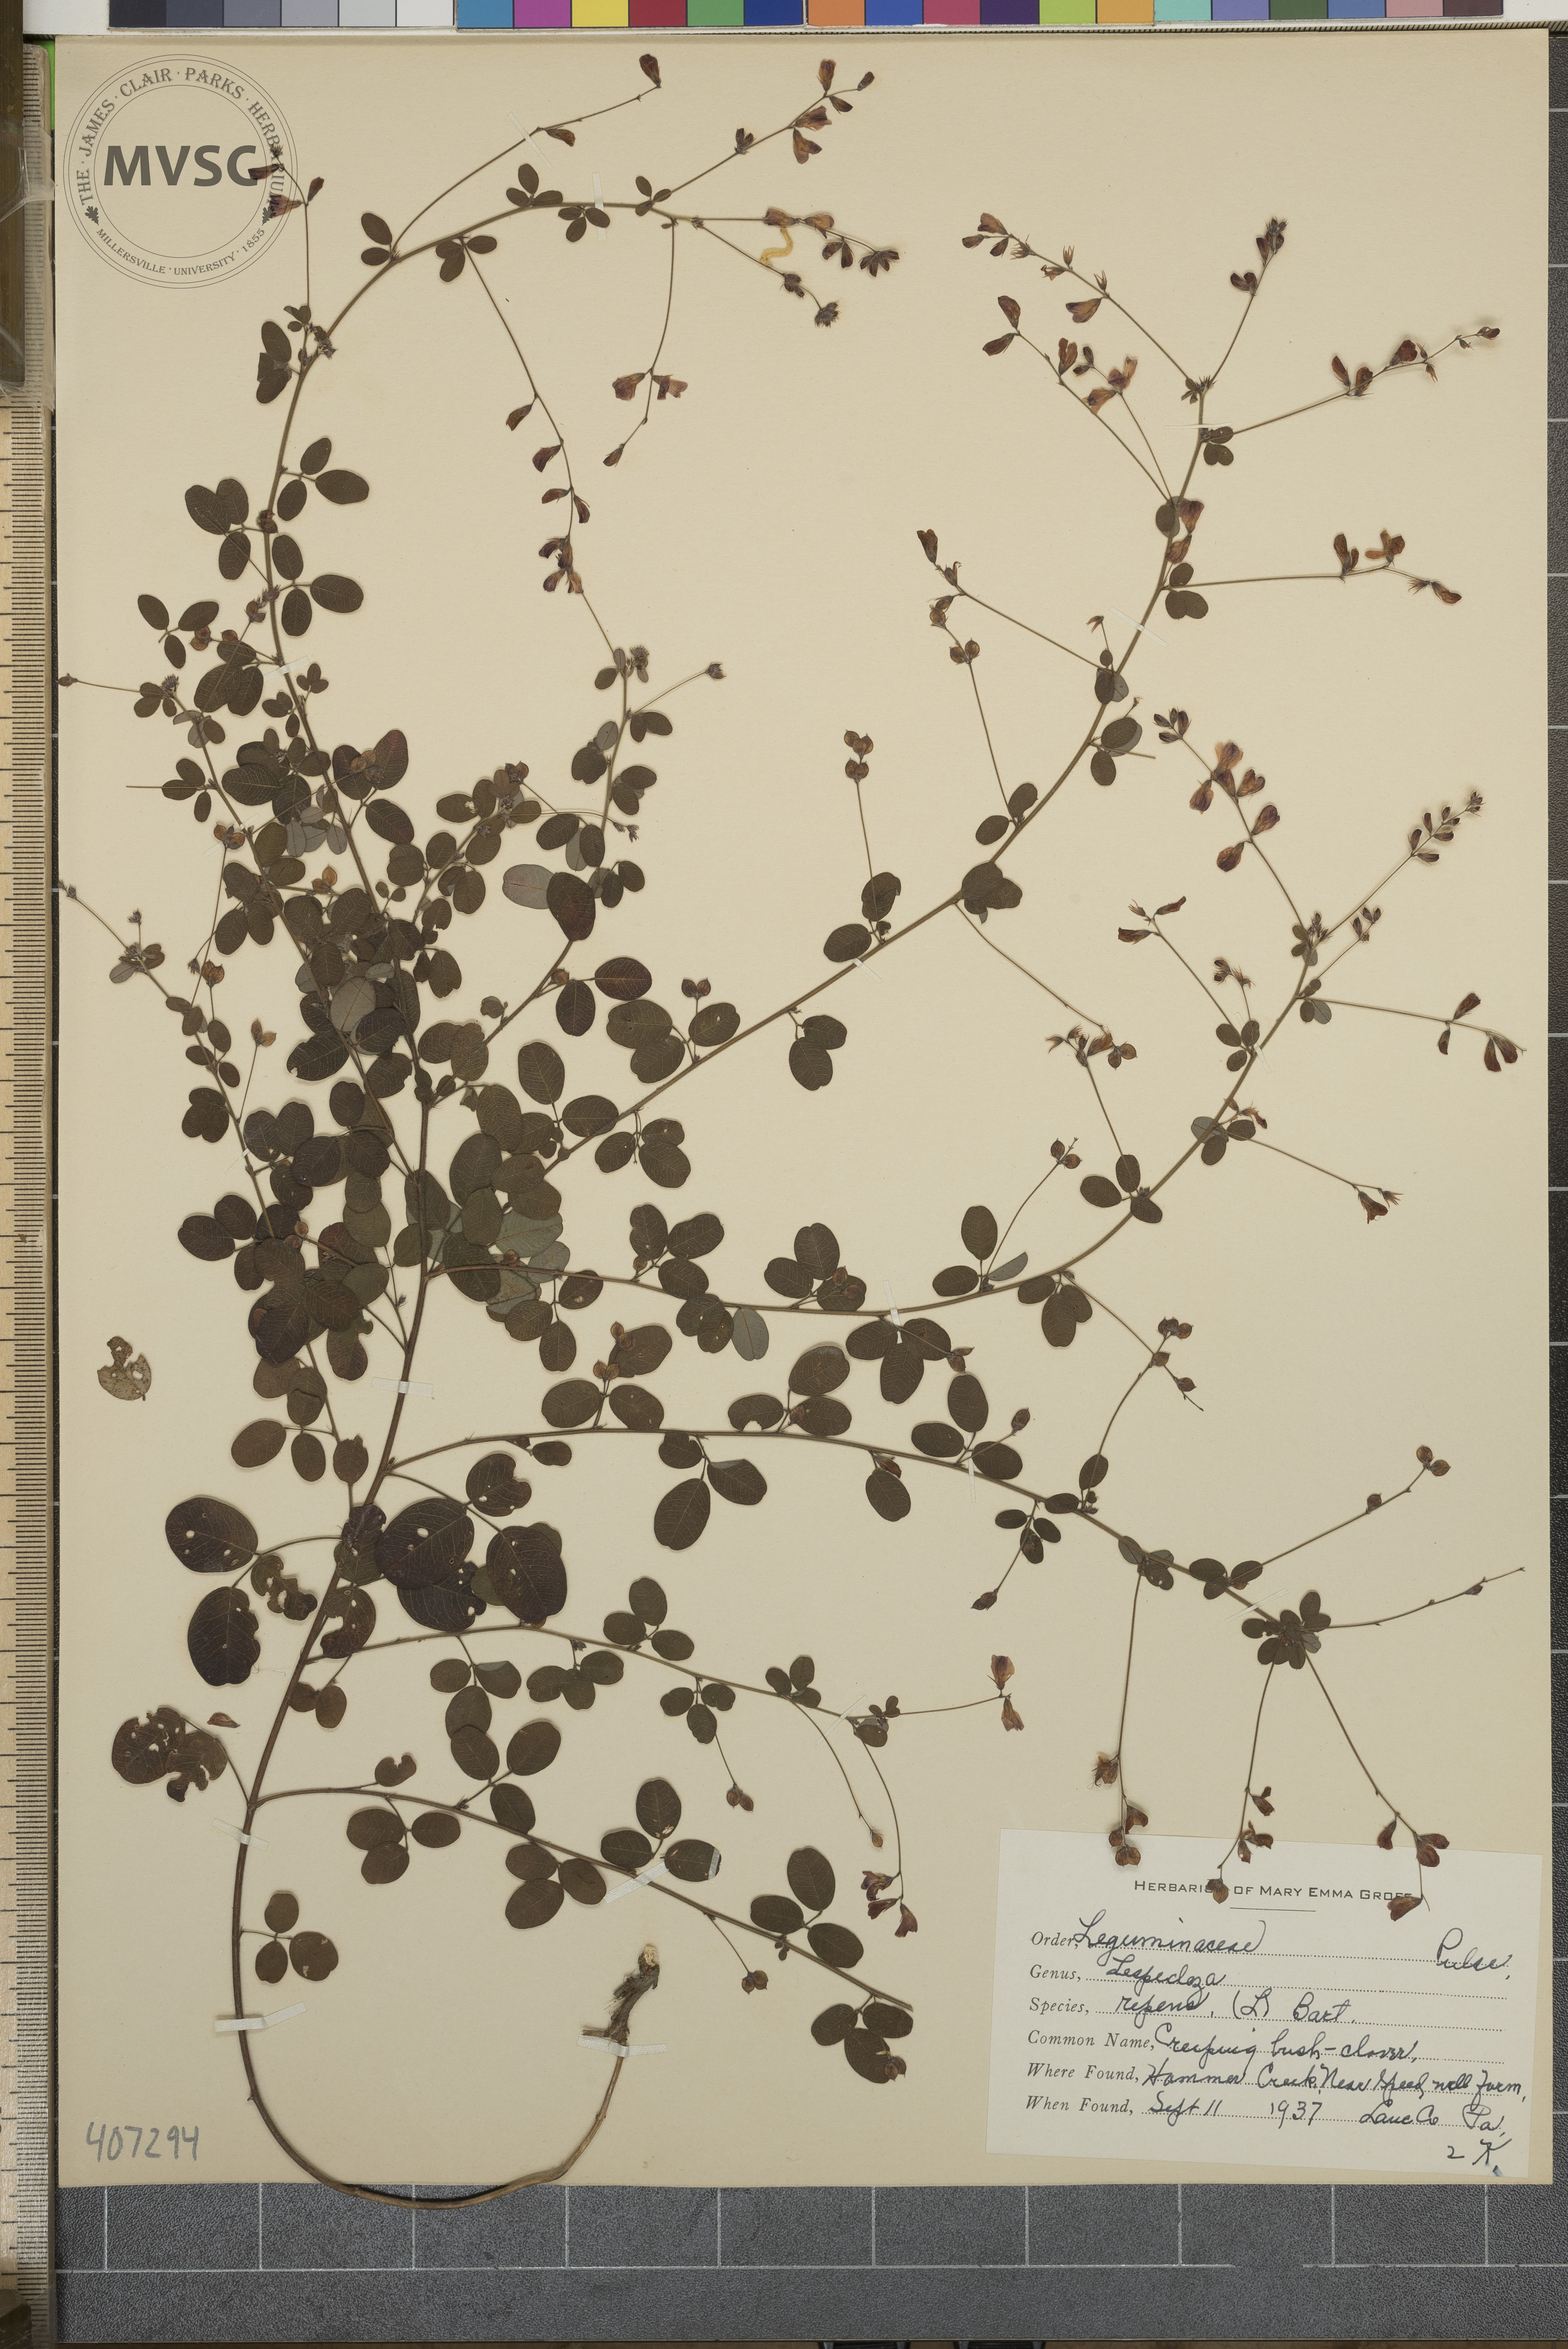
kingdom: Plantae
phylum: Tracheophyta
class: Magnoliopsida
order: Fabales
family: Fabaceae
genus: Lespedeza
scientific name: Lespedeza repens
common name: Creeping Bush-clover
